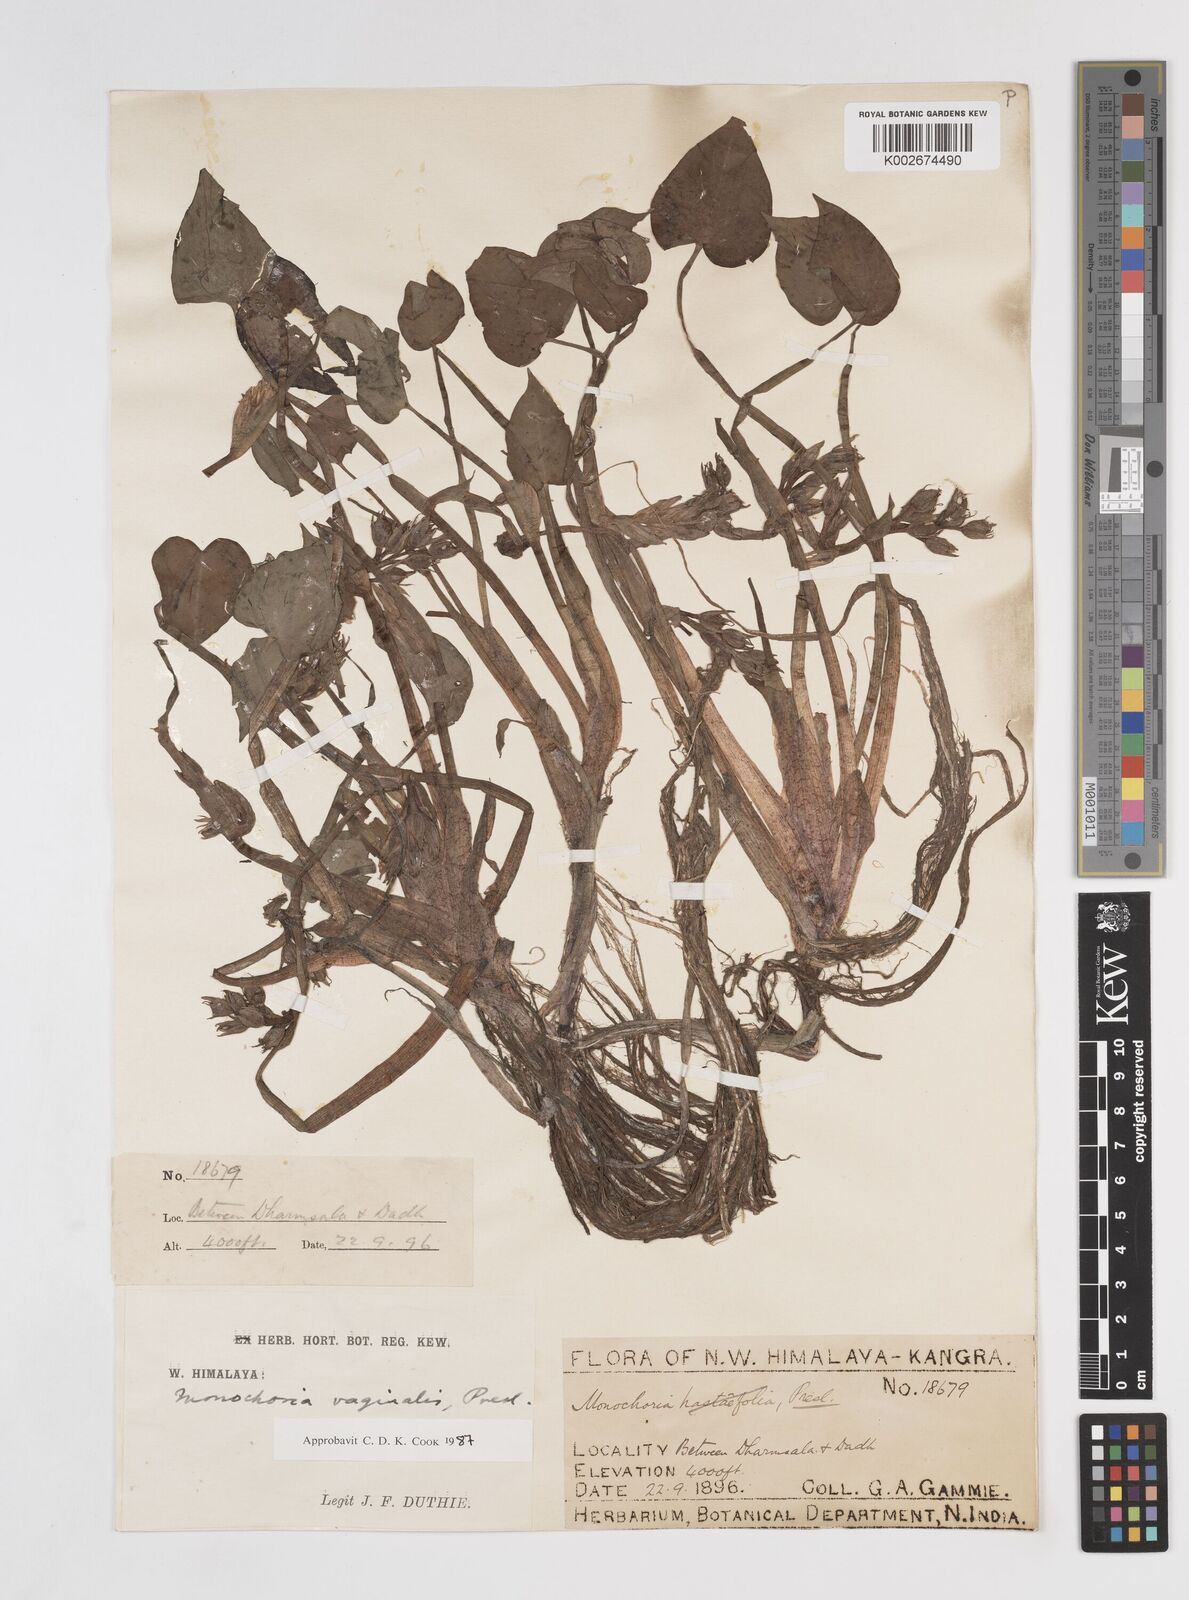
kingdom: Plantae
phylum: Tracheophyta
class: Liliopsida
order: Commelinales
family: Pontederiaceae
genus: Pontederia
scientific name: Pontederia vaginalis
